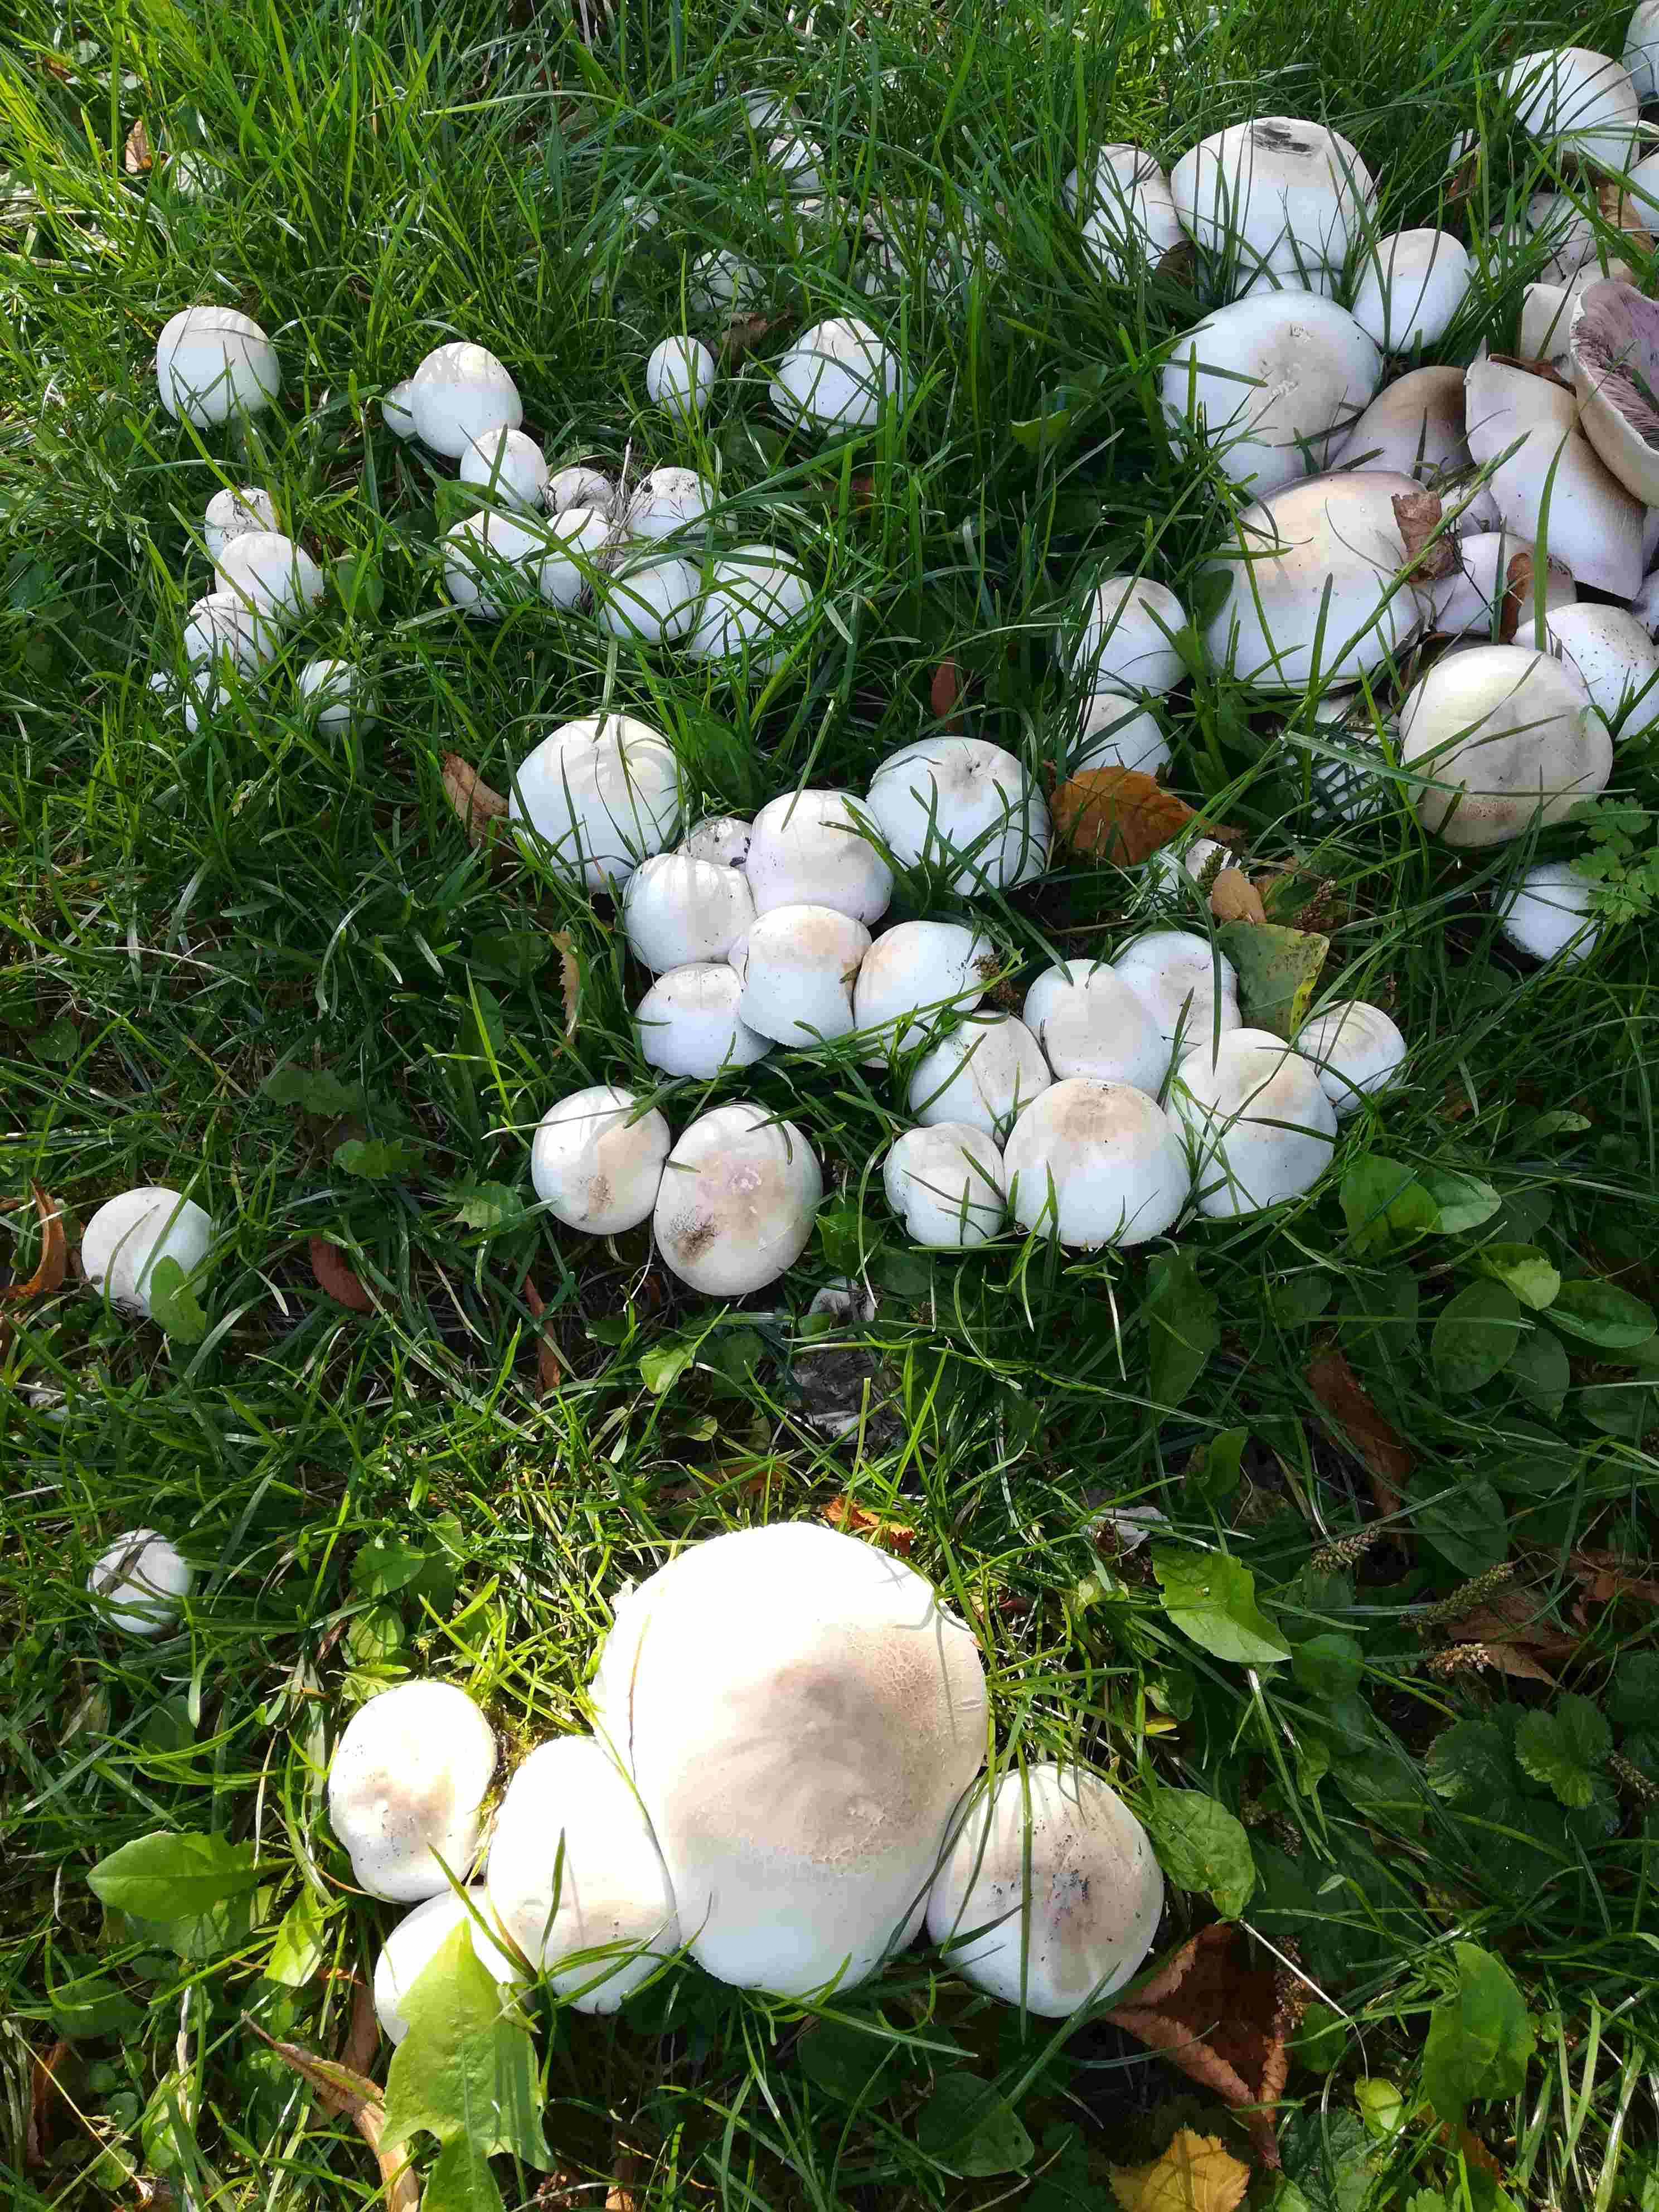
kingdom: Fungi
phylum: Basidiomycota
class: Agaricomycetes
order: Agaricales
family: Agaricaceae
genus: Agaricus
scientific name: Agaricus
